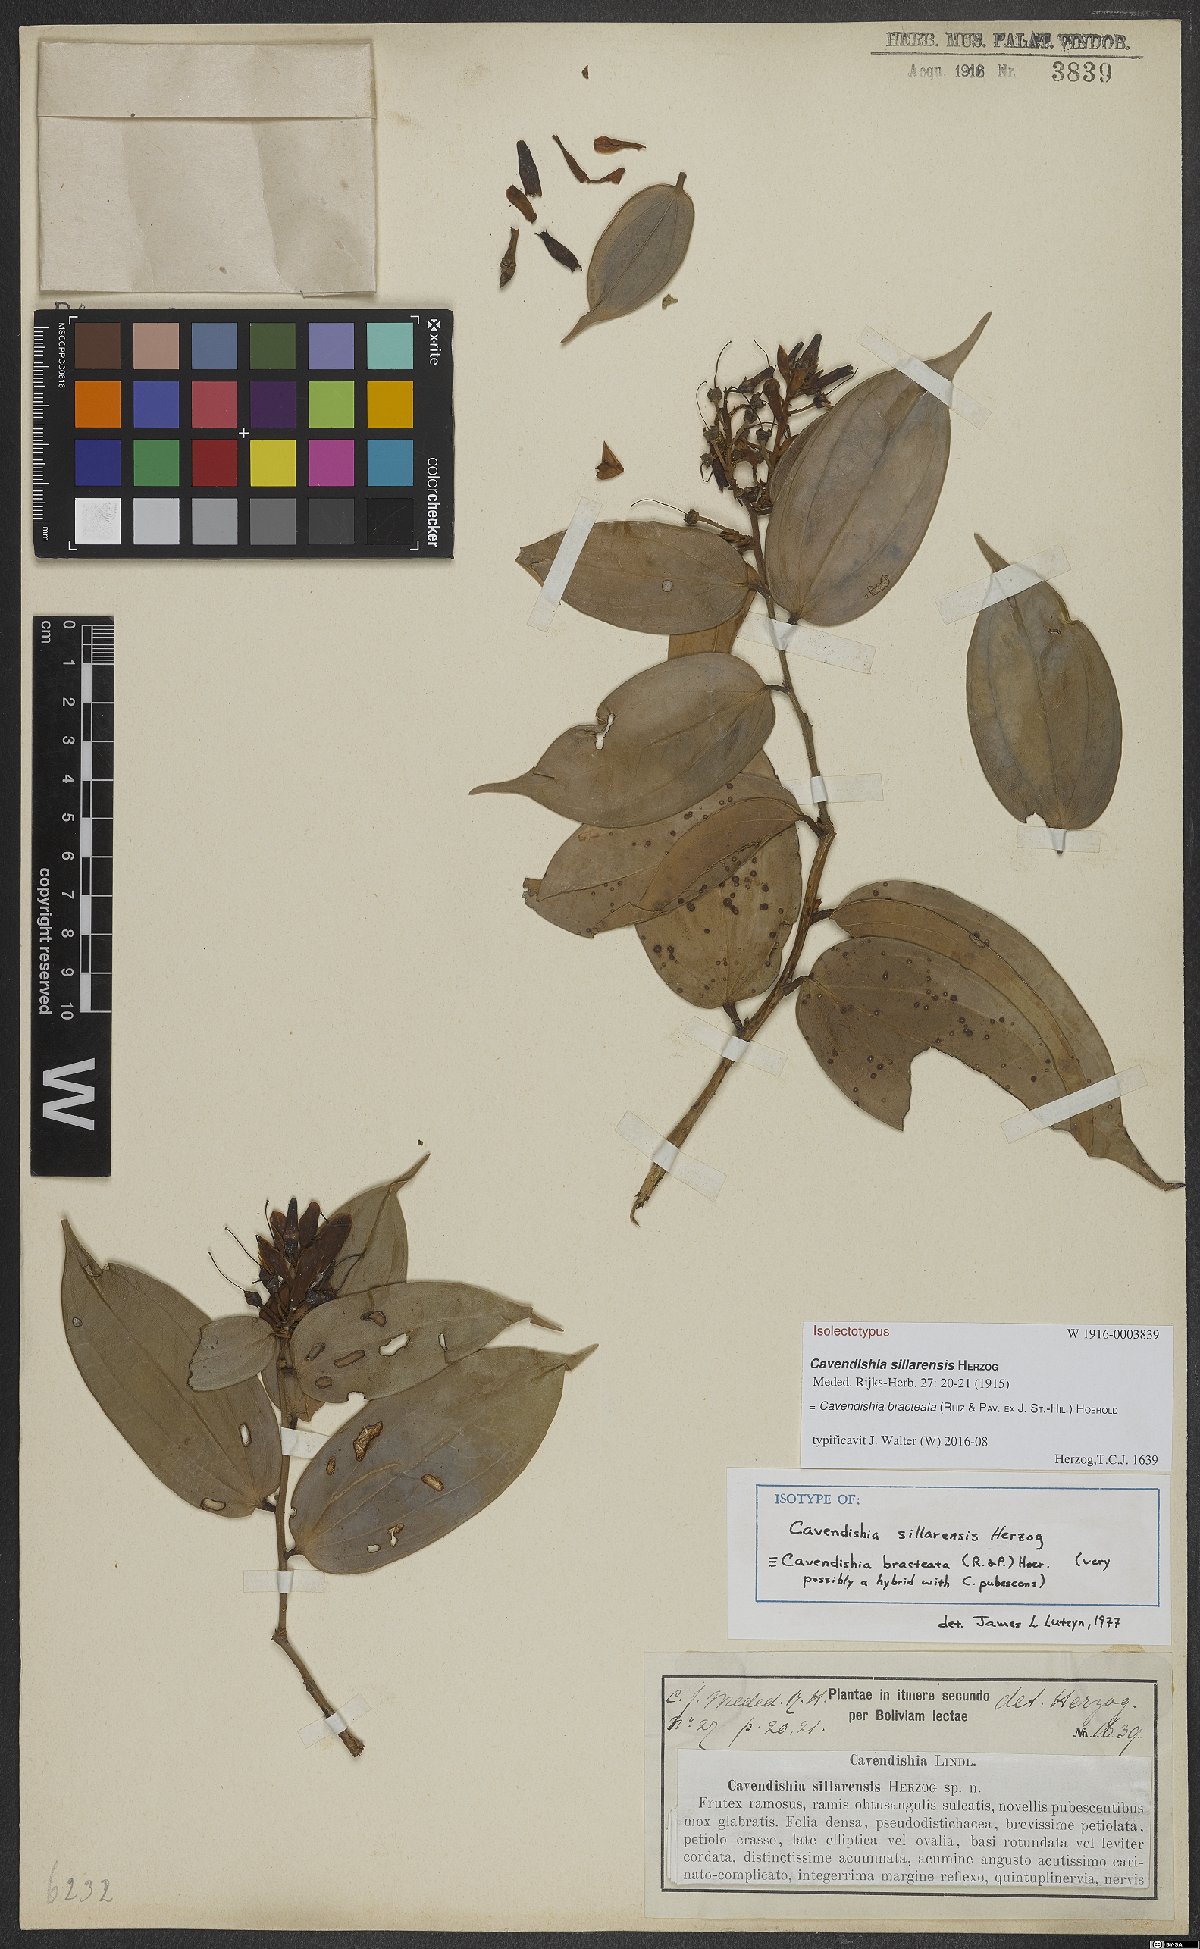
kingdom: Plantae
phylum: Tracheophyta
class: Magnoliopsida
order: Ericales
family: Ericaceae
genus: Cavendishia
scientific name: Cavendishia bracteata
